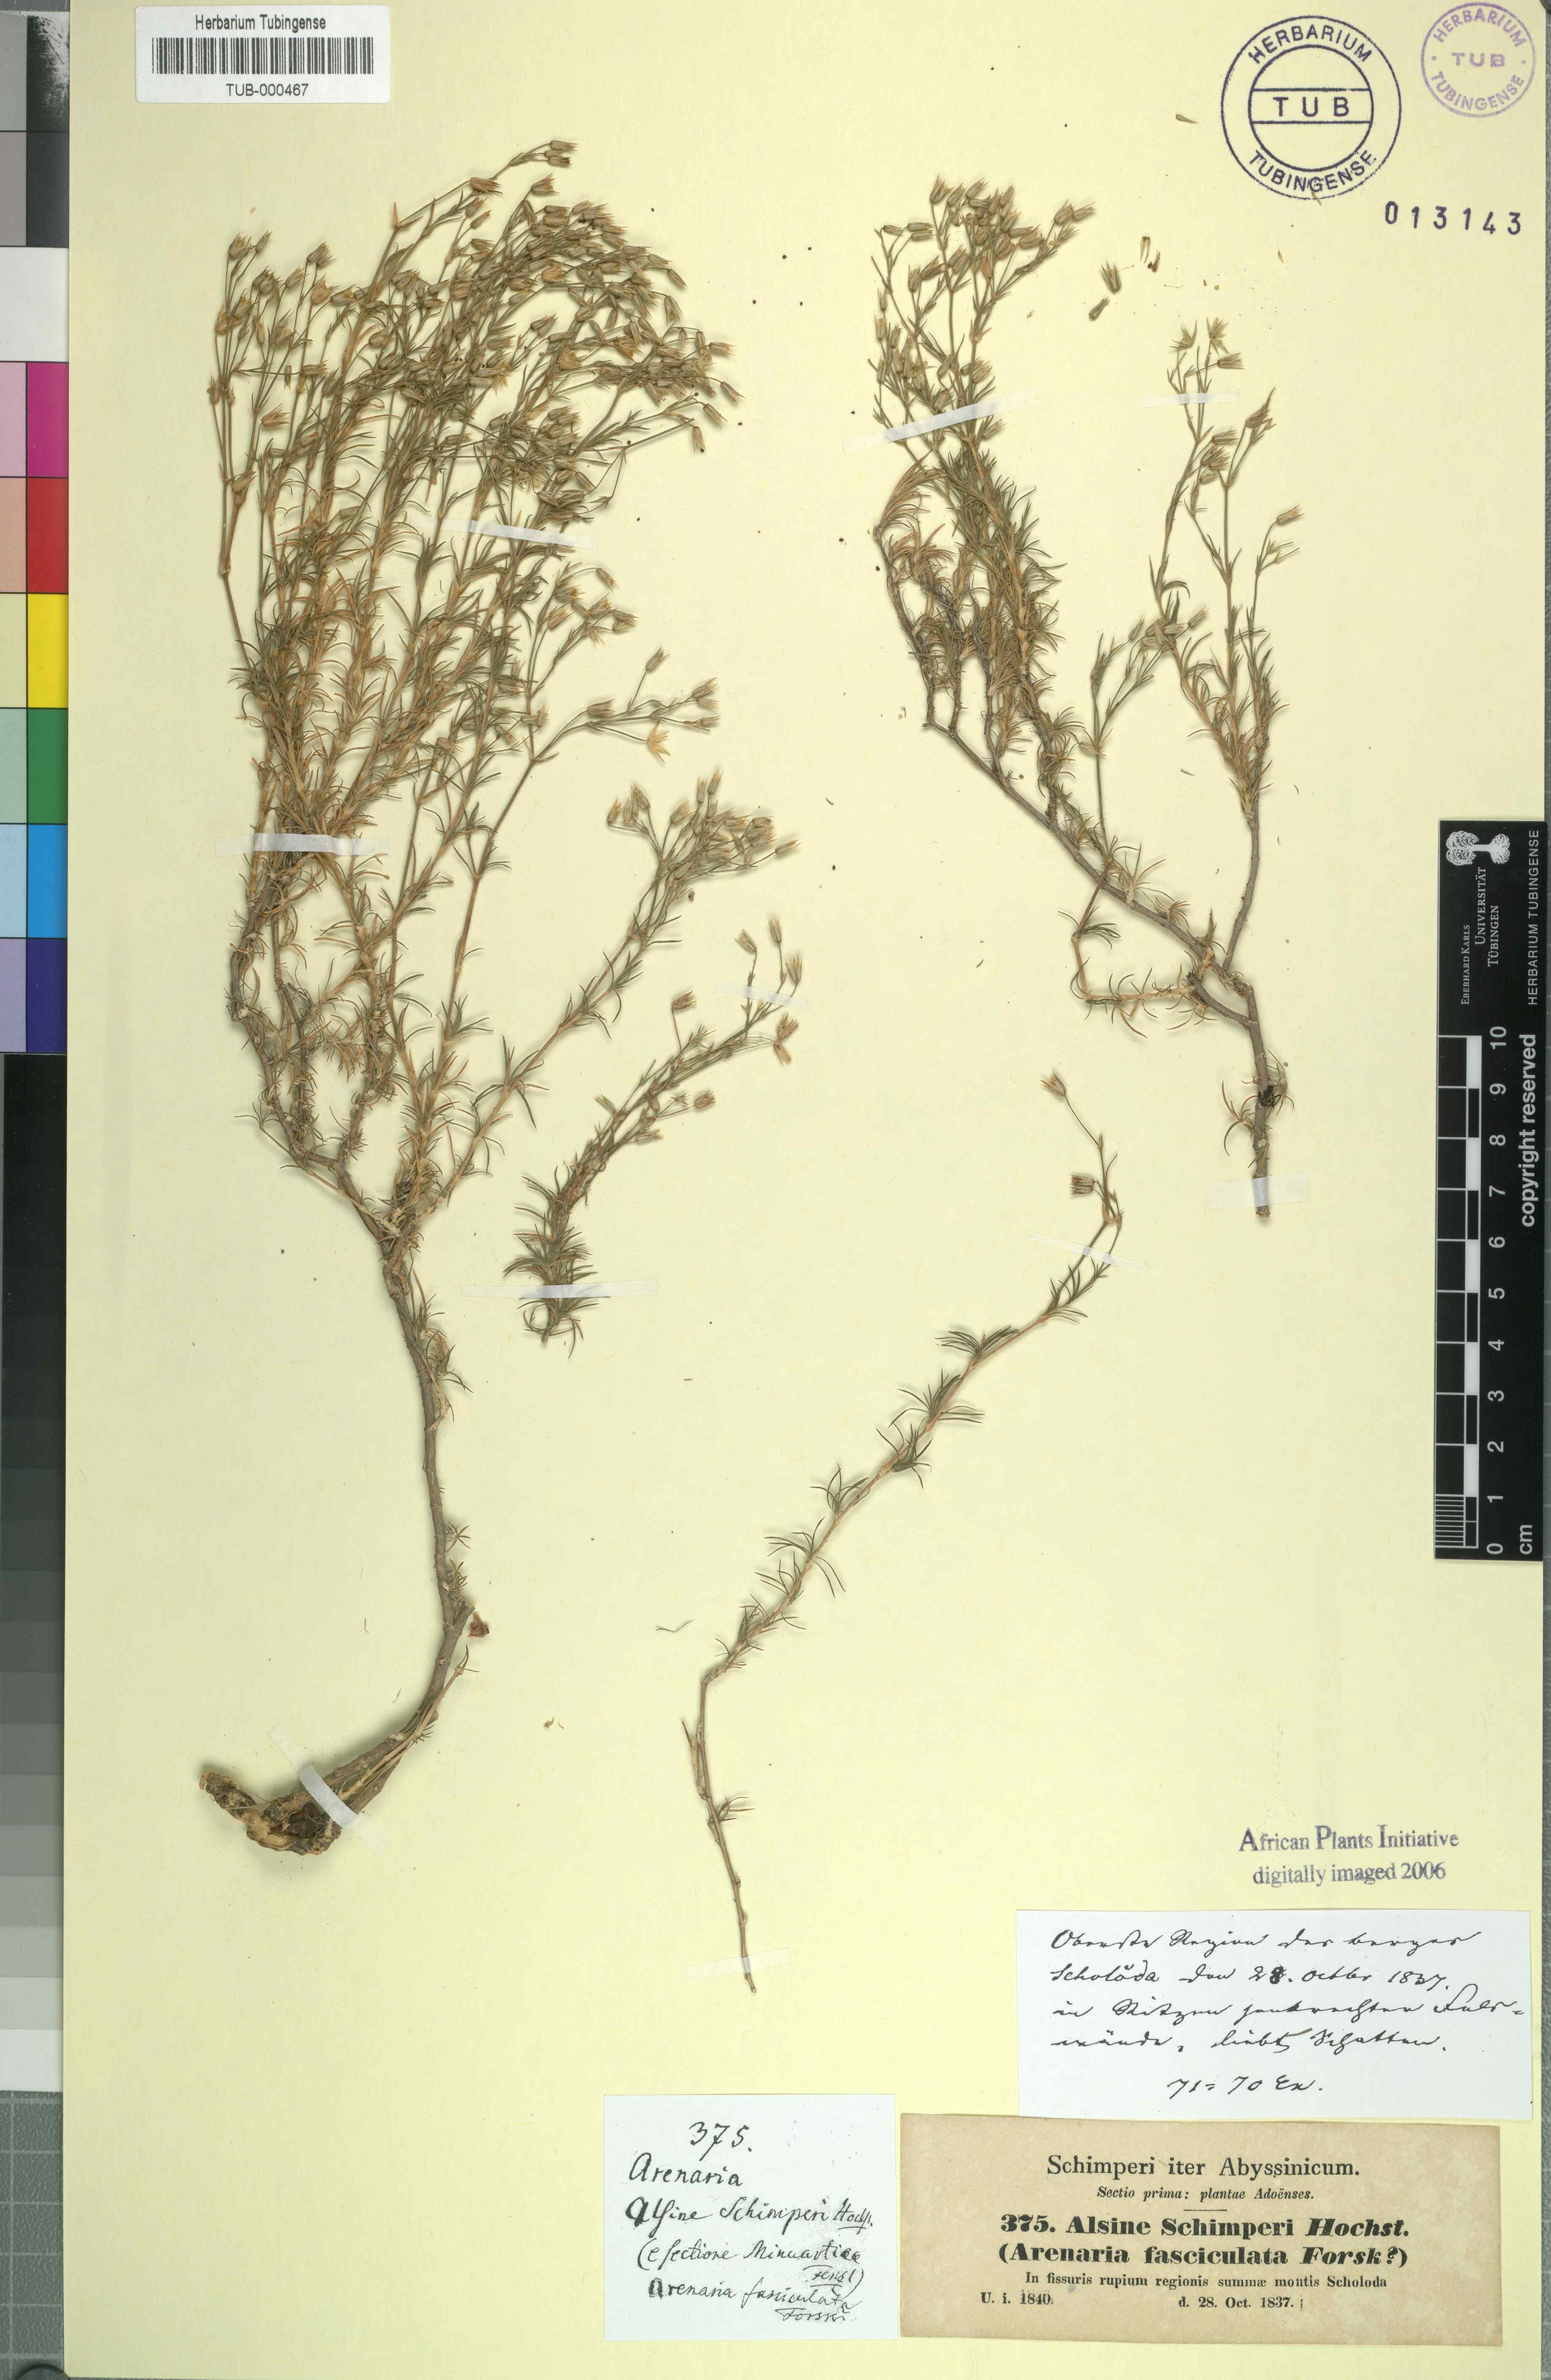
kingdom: Plantae
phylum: Tracheophyta
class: Magnoliopsida
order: Caryophyllales
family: Caryophyllaceae
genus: Minuartia
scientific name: Minuartia filifolia
